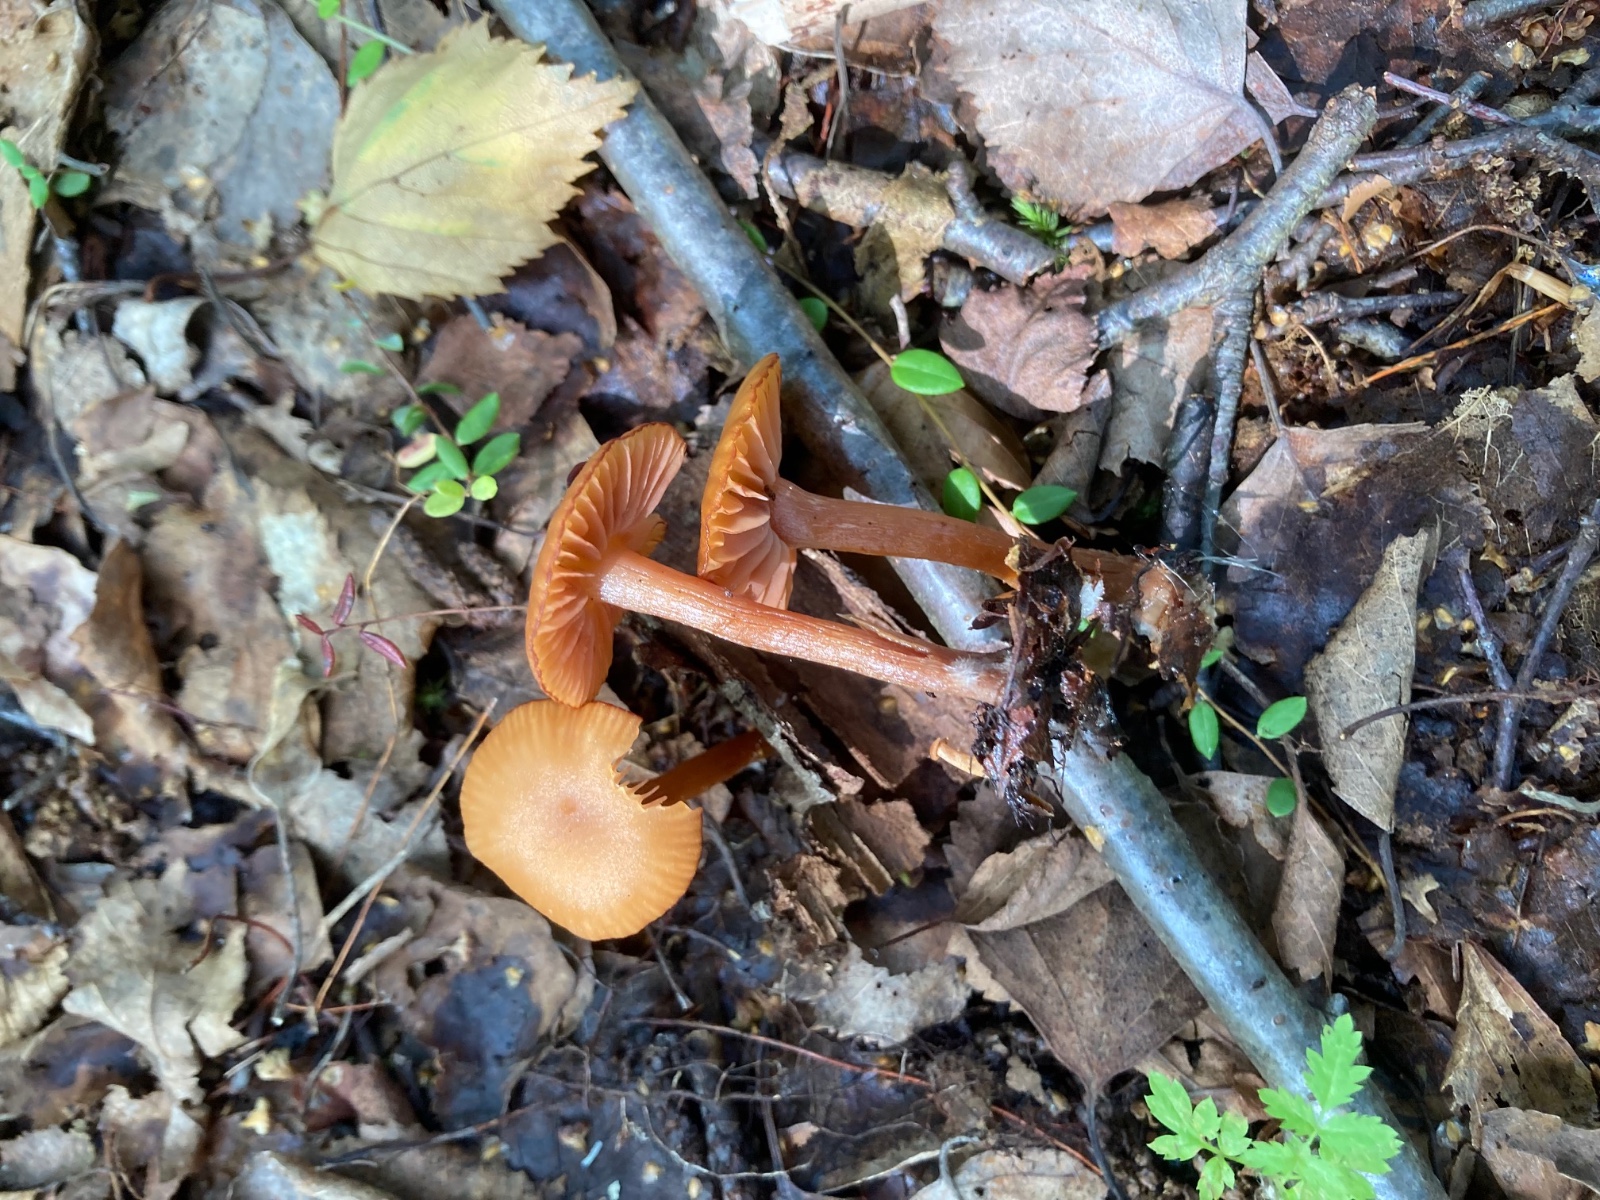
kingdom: Fungi
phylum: Basidiomycota
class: Agaricomycetes
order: Agaricales
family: Hydnangiaceae
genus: Laccaria
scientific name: Laccaria laccata
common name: rød ametysthat
